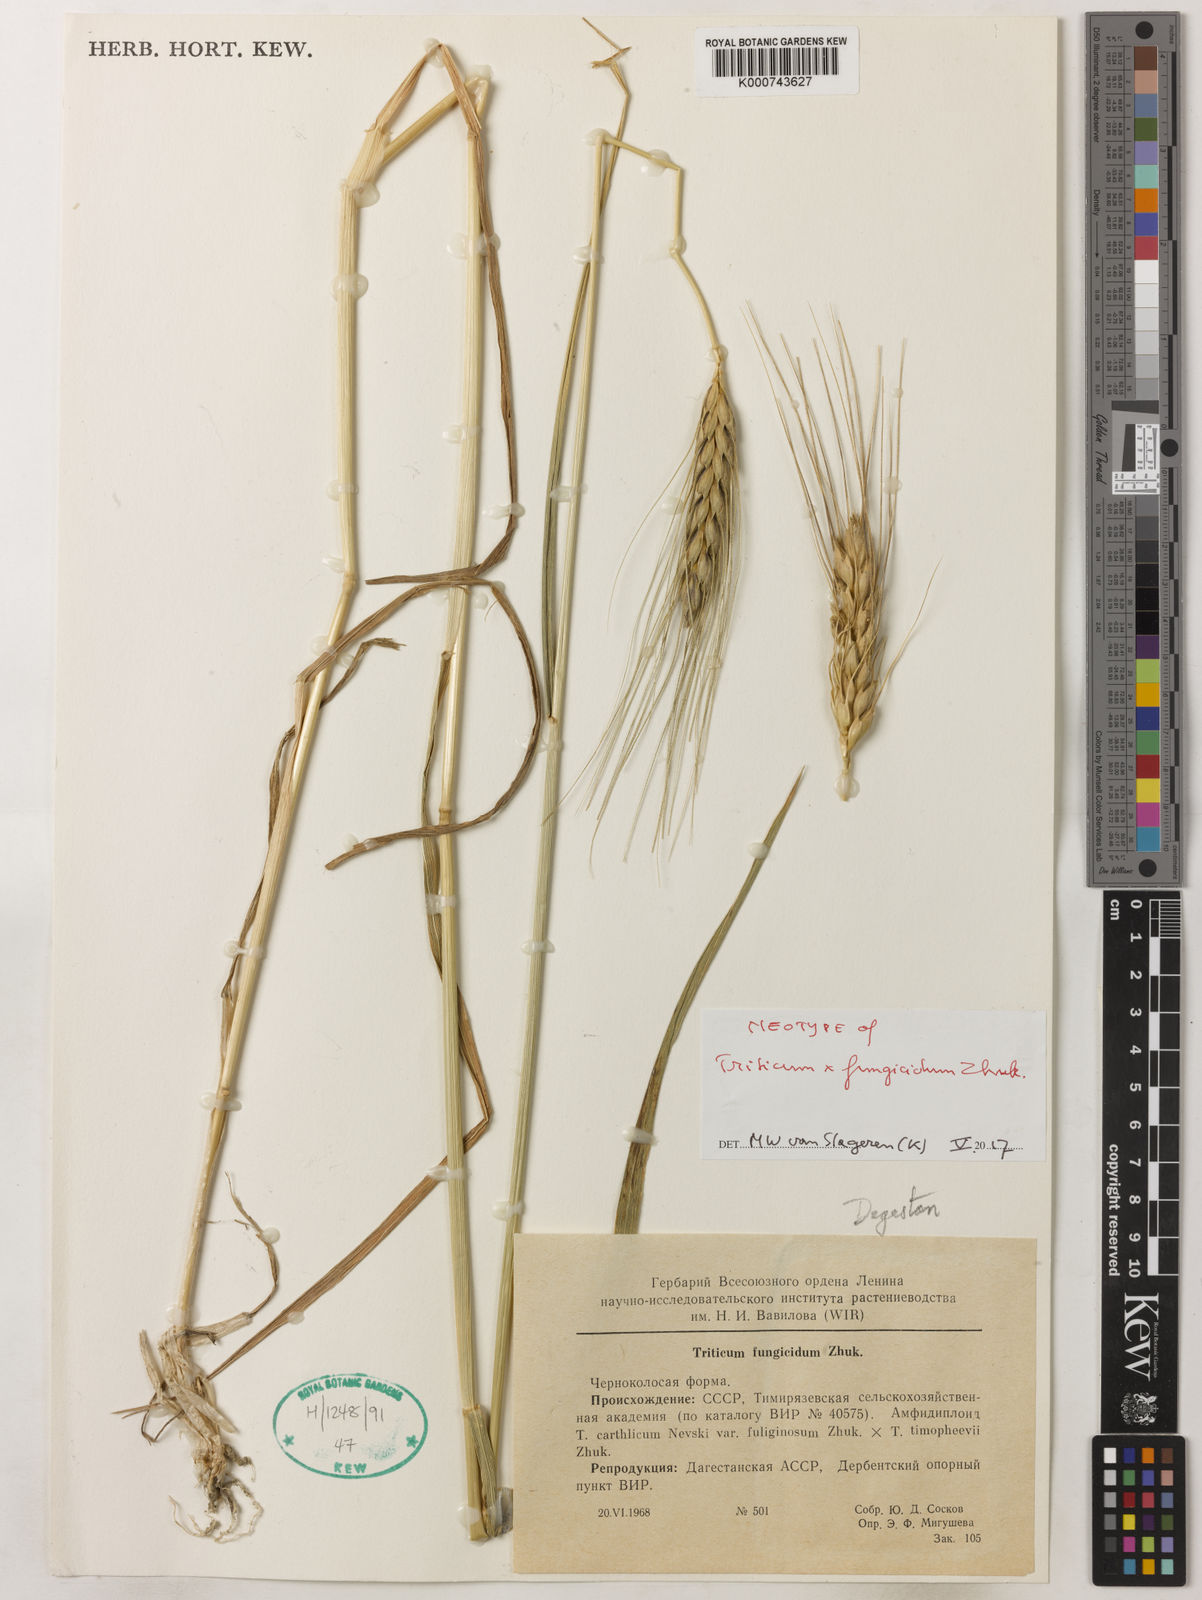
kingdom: Plantae
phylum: Tracheophyta
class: Liliopsida
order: Poales
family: Poaceae
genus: Triticum
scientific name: Triticum fungicidum
